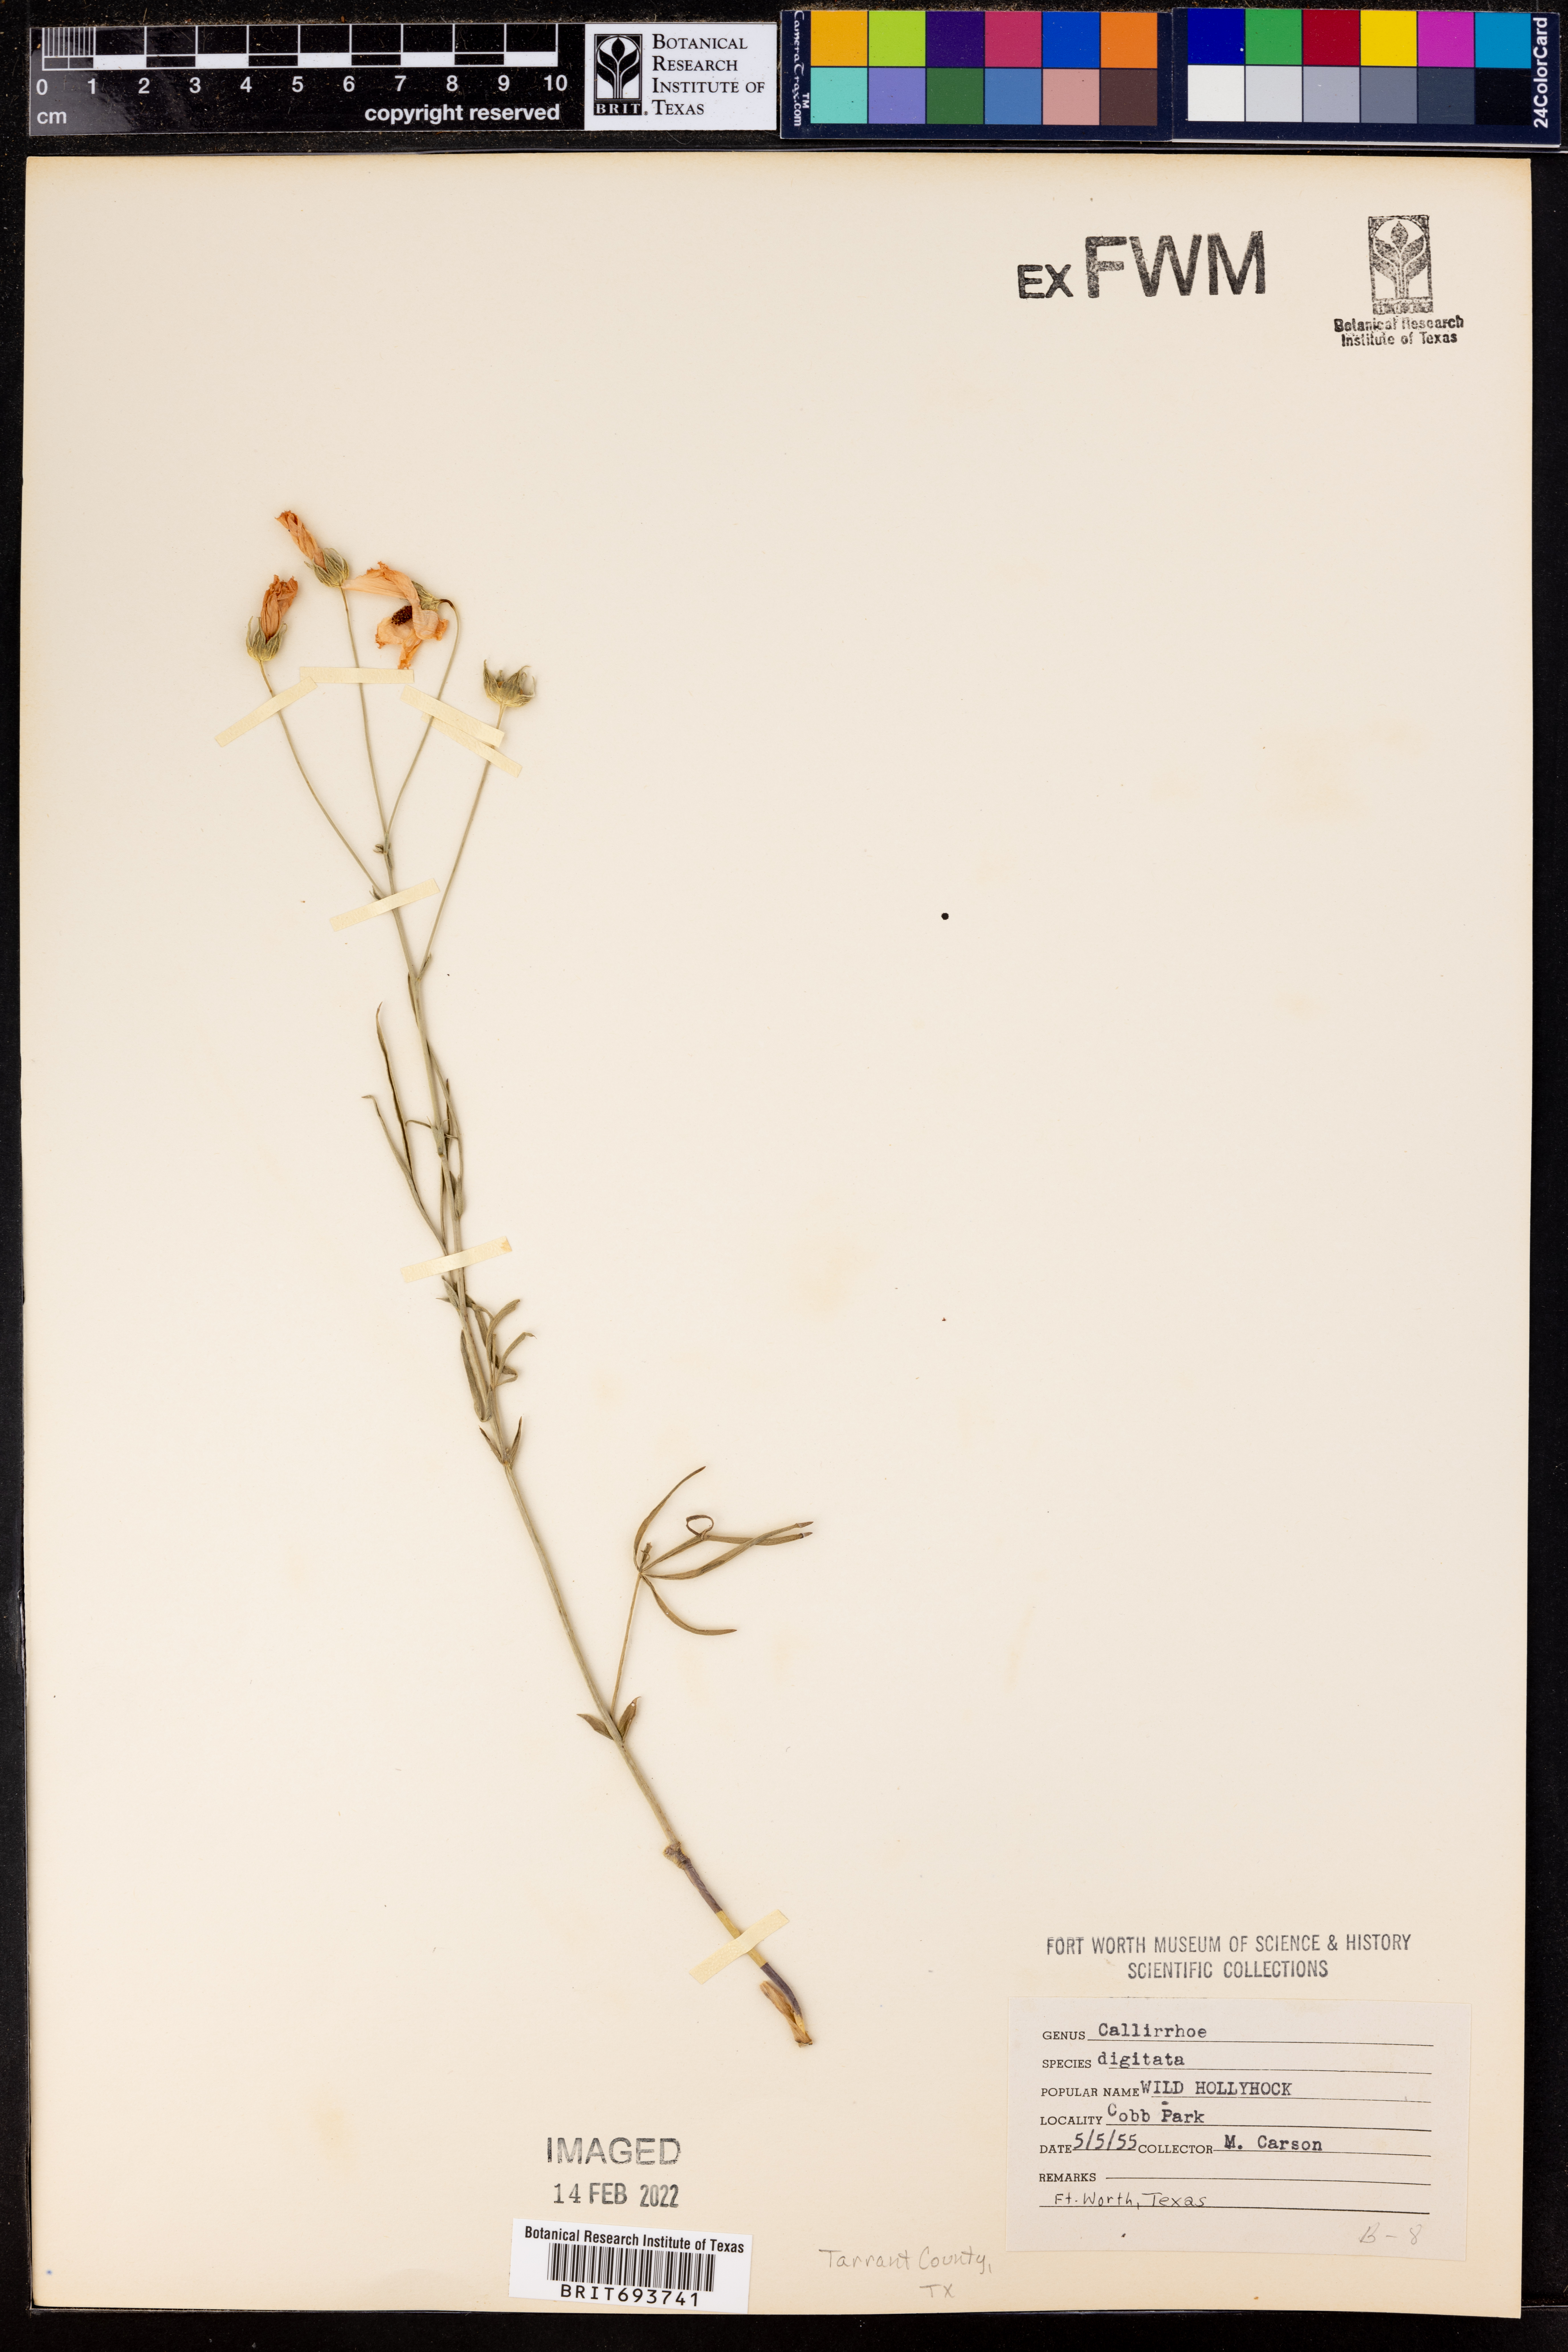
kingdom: Plantae
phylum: Tracheophyta
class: Magnoliopsida
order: Malvales
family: Malvaceae
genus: Callirhoe
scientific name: Callirhoe digitata
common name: Finger poppy-mallow
